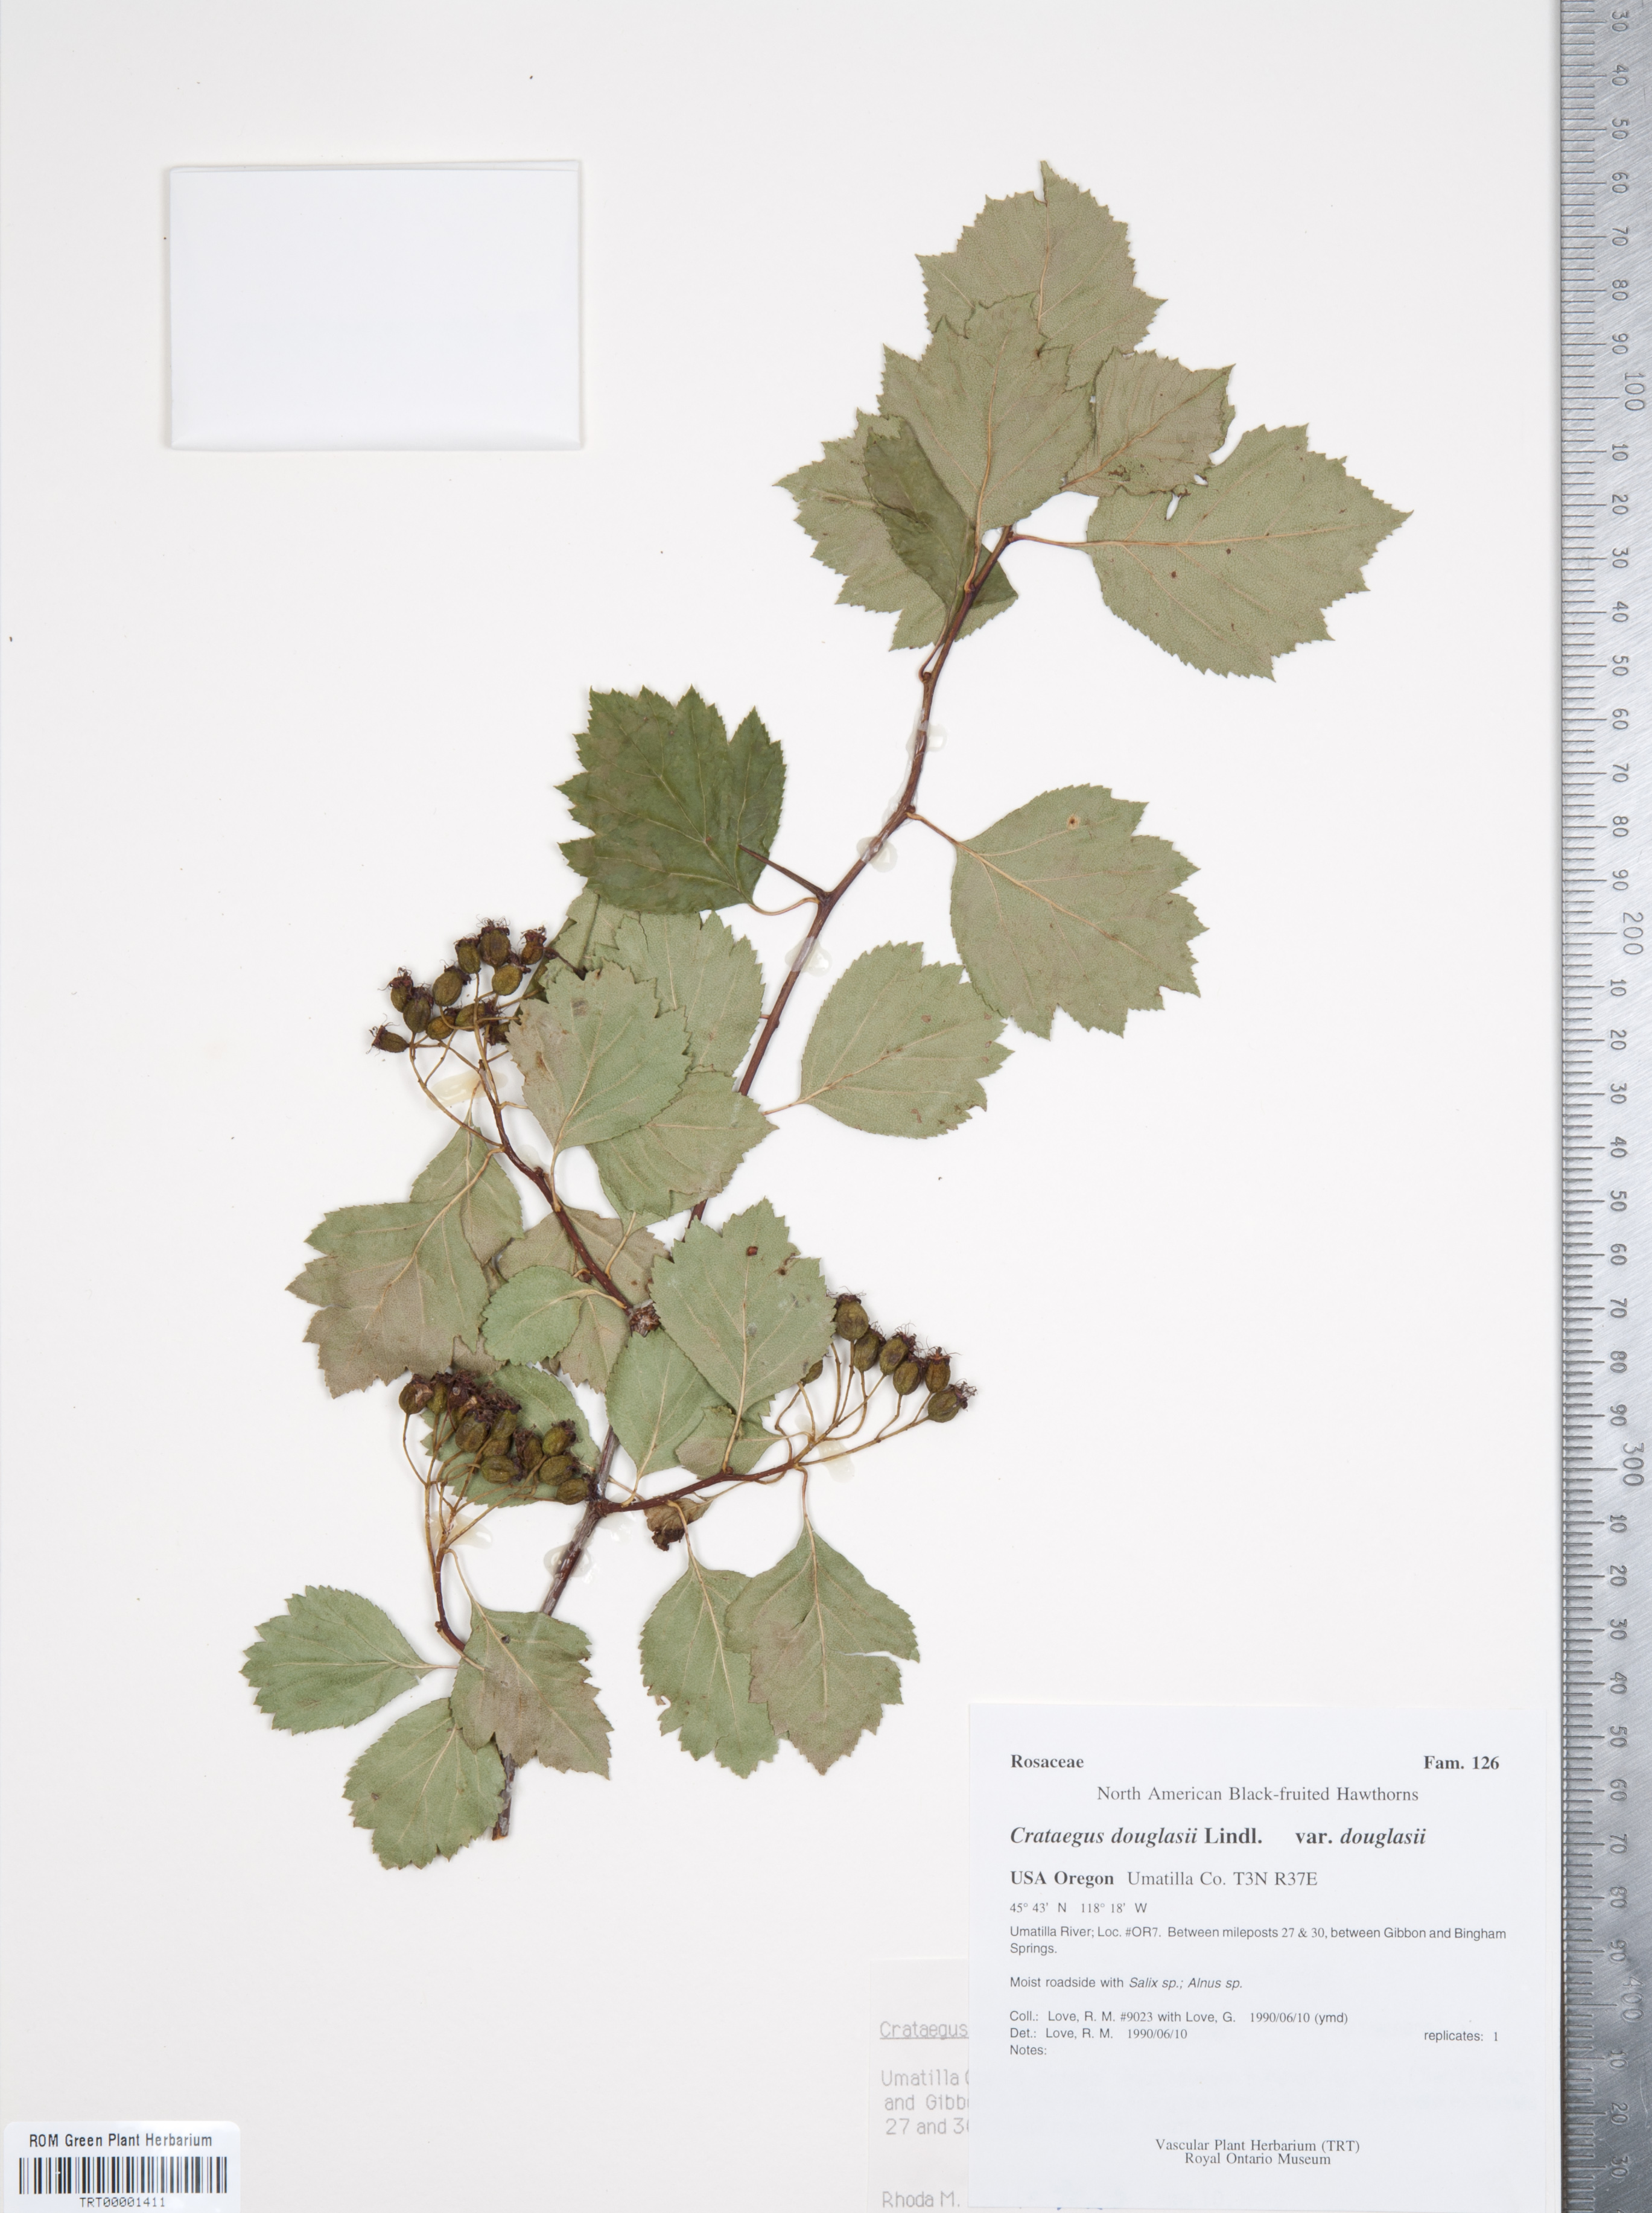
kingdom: Plantae
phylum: Tracheophyta
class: Magnoliopsida
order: Rosales
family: Rosaceae
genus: Crataegus
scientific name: Crataegus douglasii
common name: Black hawthorn
